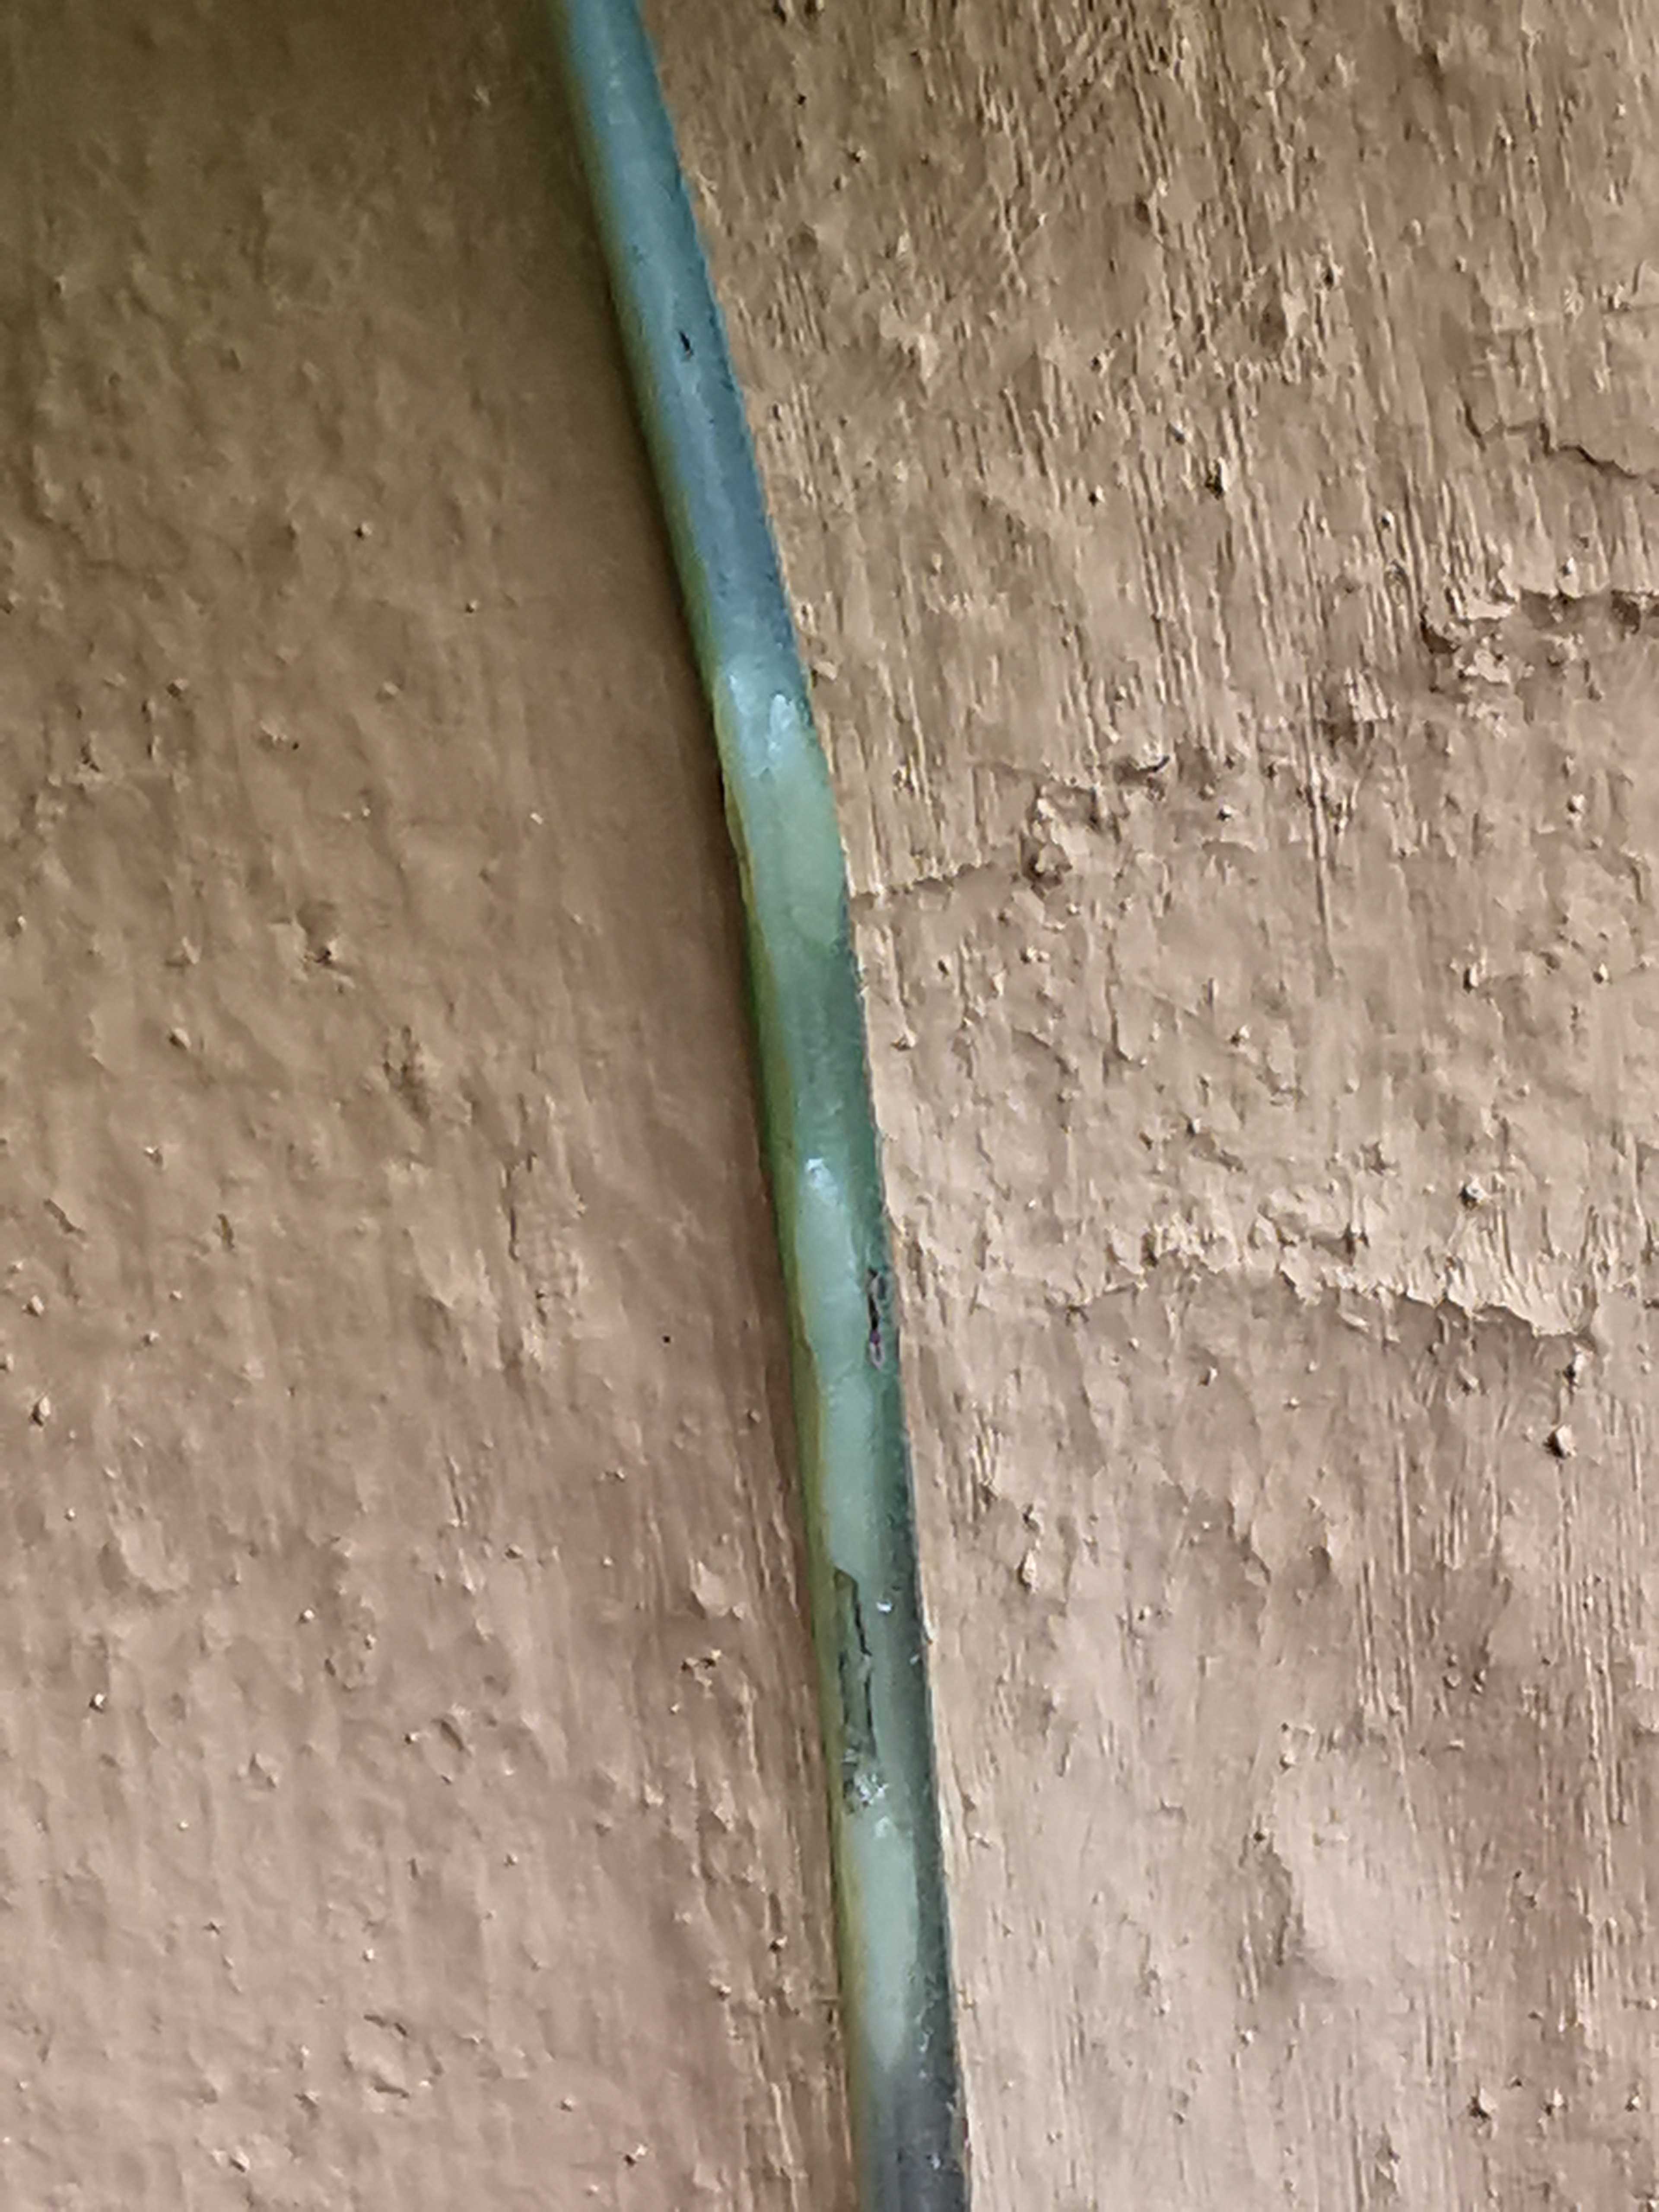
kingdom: Fungi
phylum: Ascomycota
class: Taphrinomycetes
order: Taphrinales
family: Taphrinaceae
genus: Protomyces
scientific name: Protomyces macrosporus
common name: skvalderkål-vablesæk
